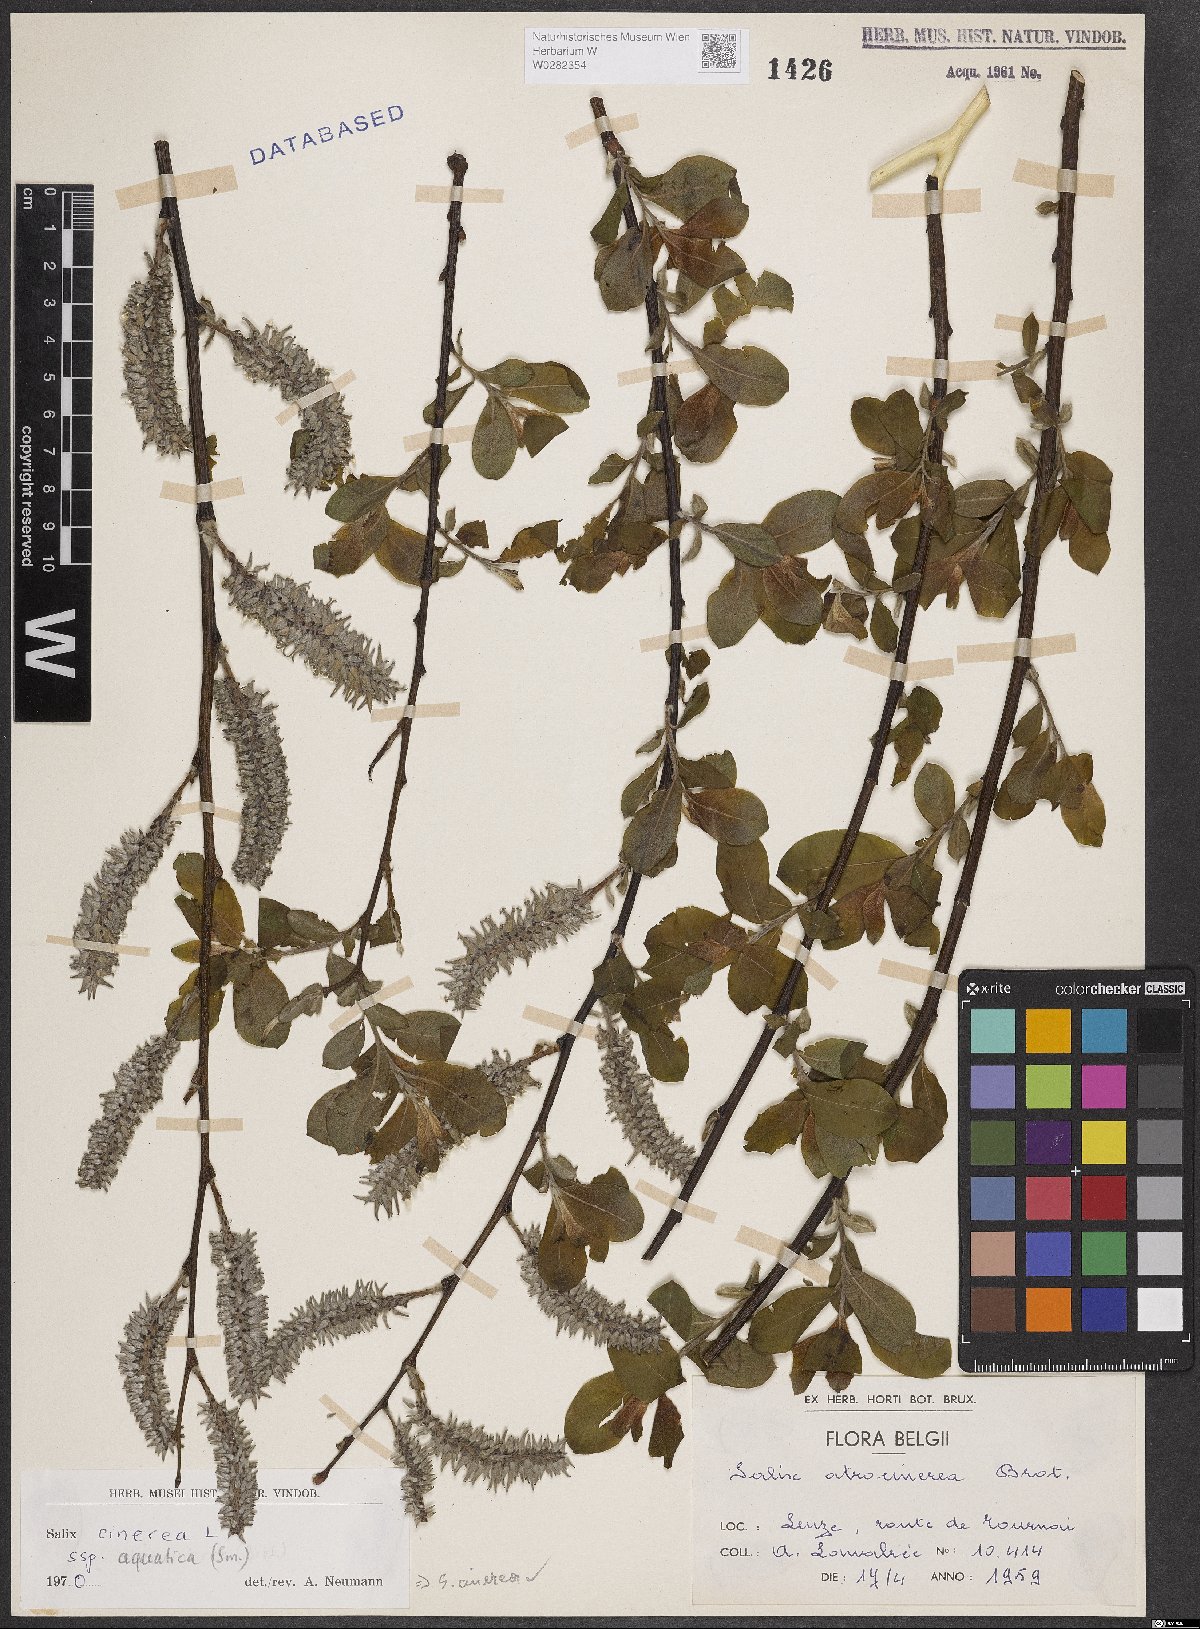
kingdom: Plantae
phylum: Tracheophyta
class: Magnoliopsida
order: Malpighiales
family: Salicaceae
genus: Salix
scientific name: Salix cinerea
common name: Common sallow
